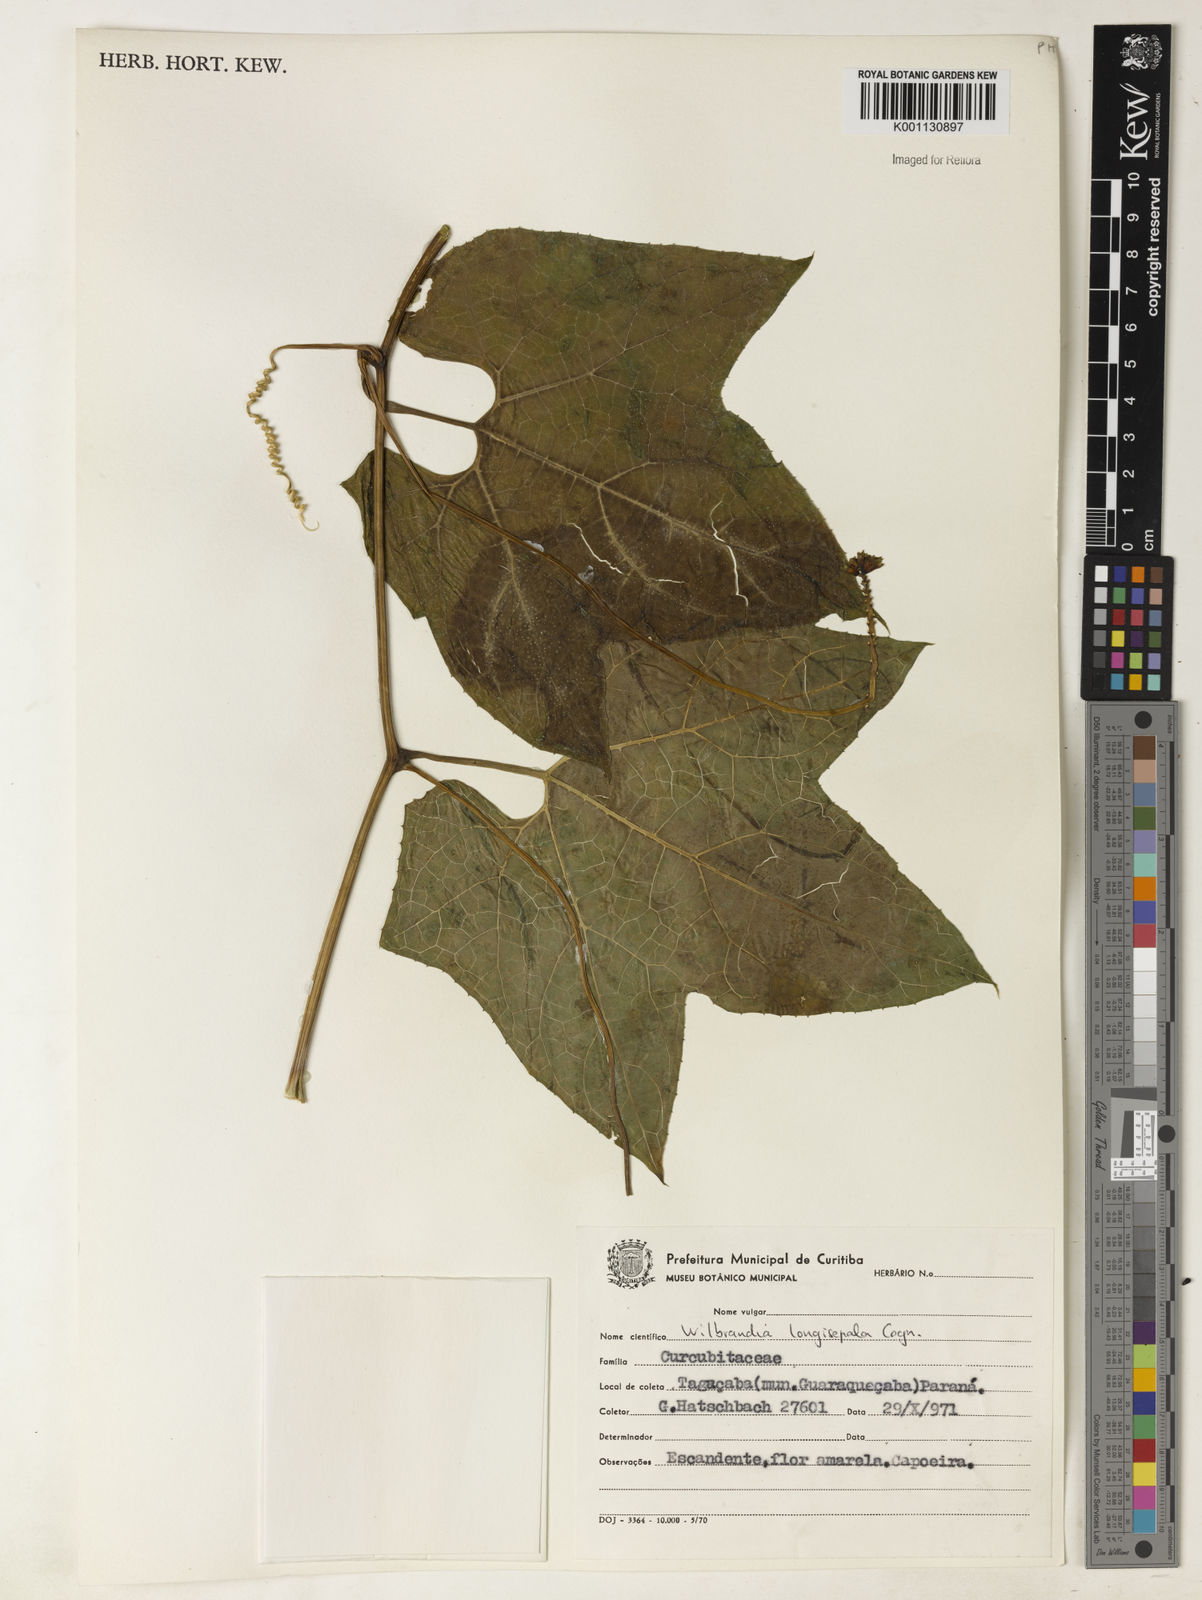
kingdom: Plantae
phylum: Tracheophyta
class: Magnoliopsida
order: Cucurbitales
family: Cucurbitaceae
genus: Wilbrandia
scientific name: Wilbrandia longisepala
